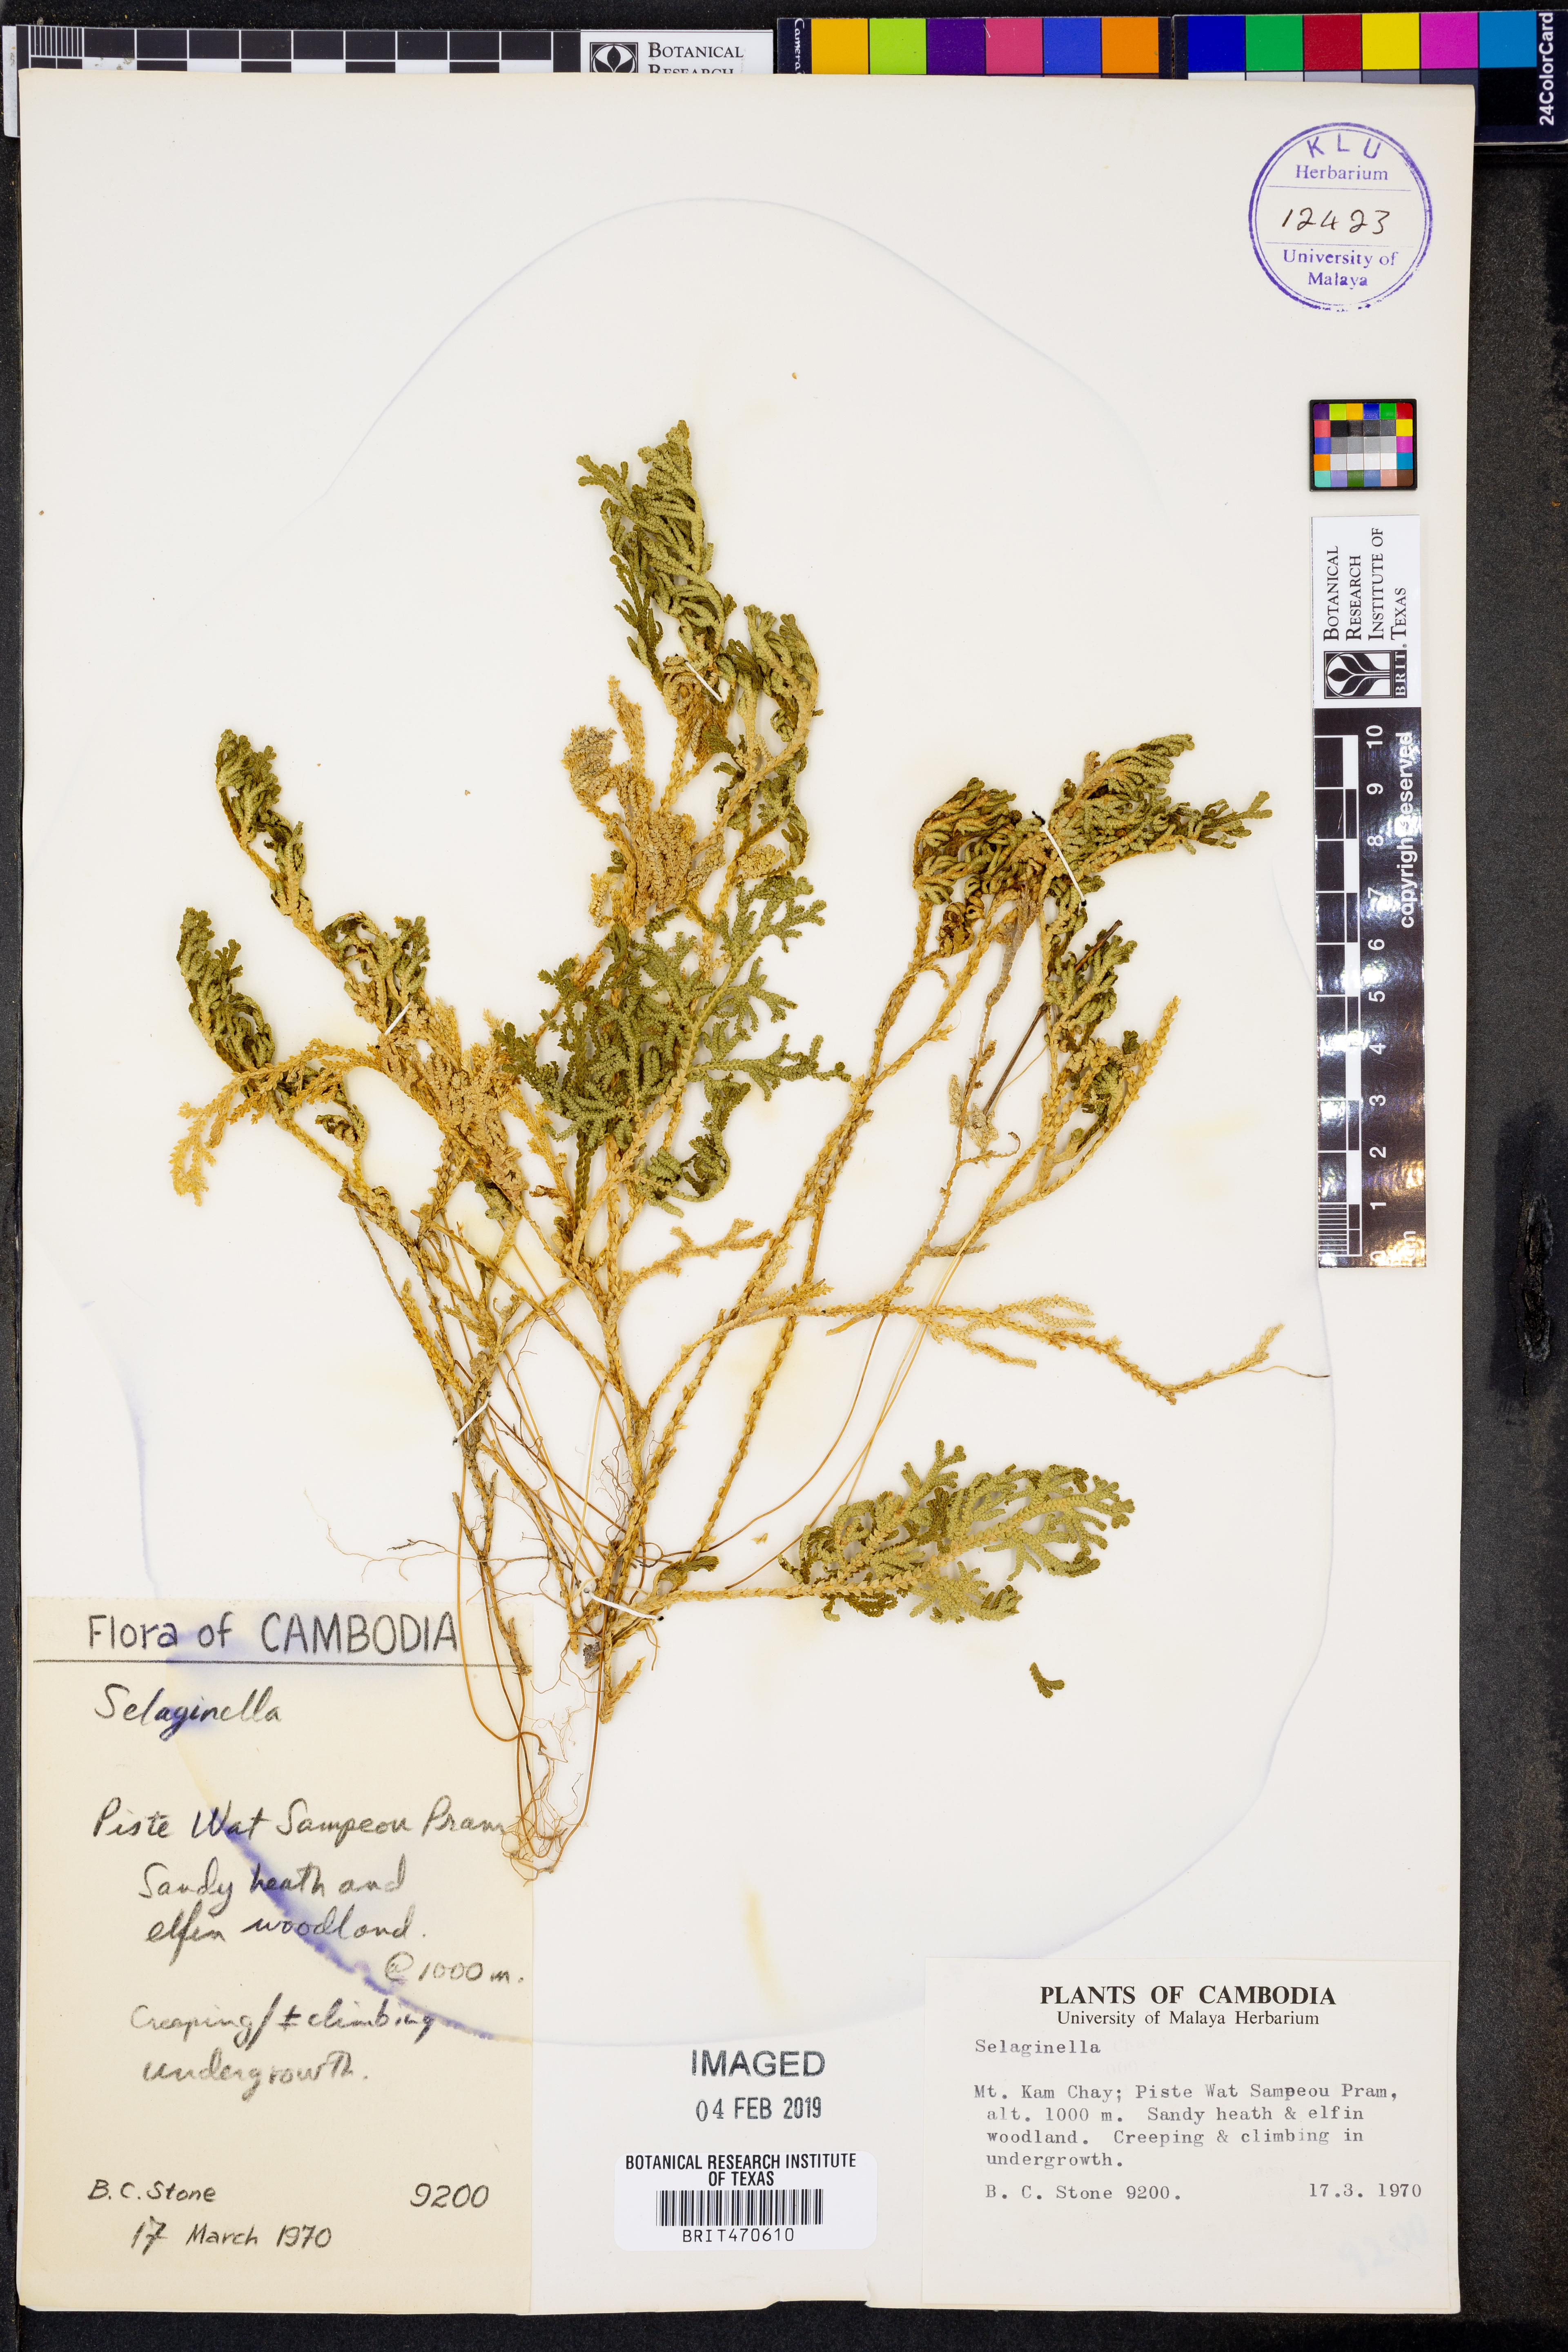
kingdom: Plantae
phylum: Tracheophyta
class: Lycopodiopsida
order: Selaginellales
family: Selaginellaceae
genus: Selaginella
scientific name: Selaginella
